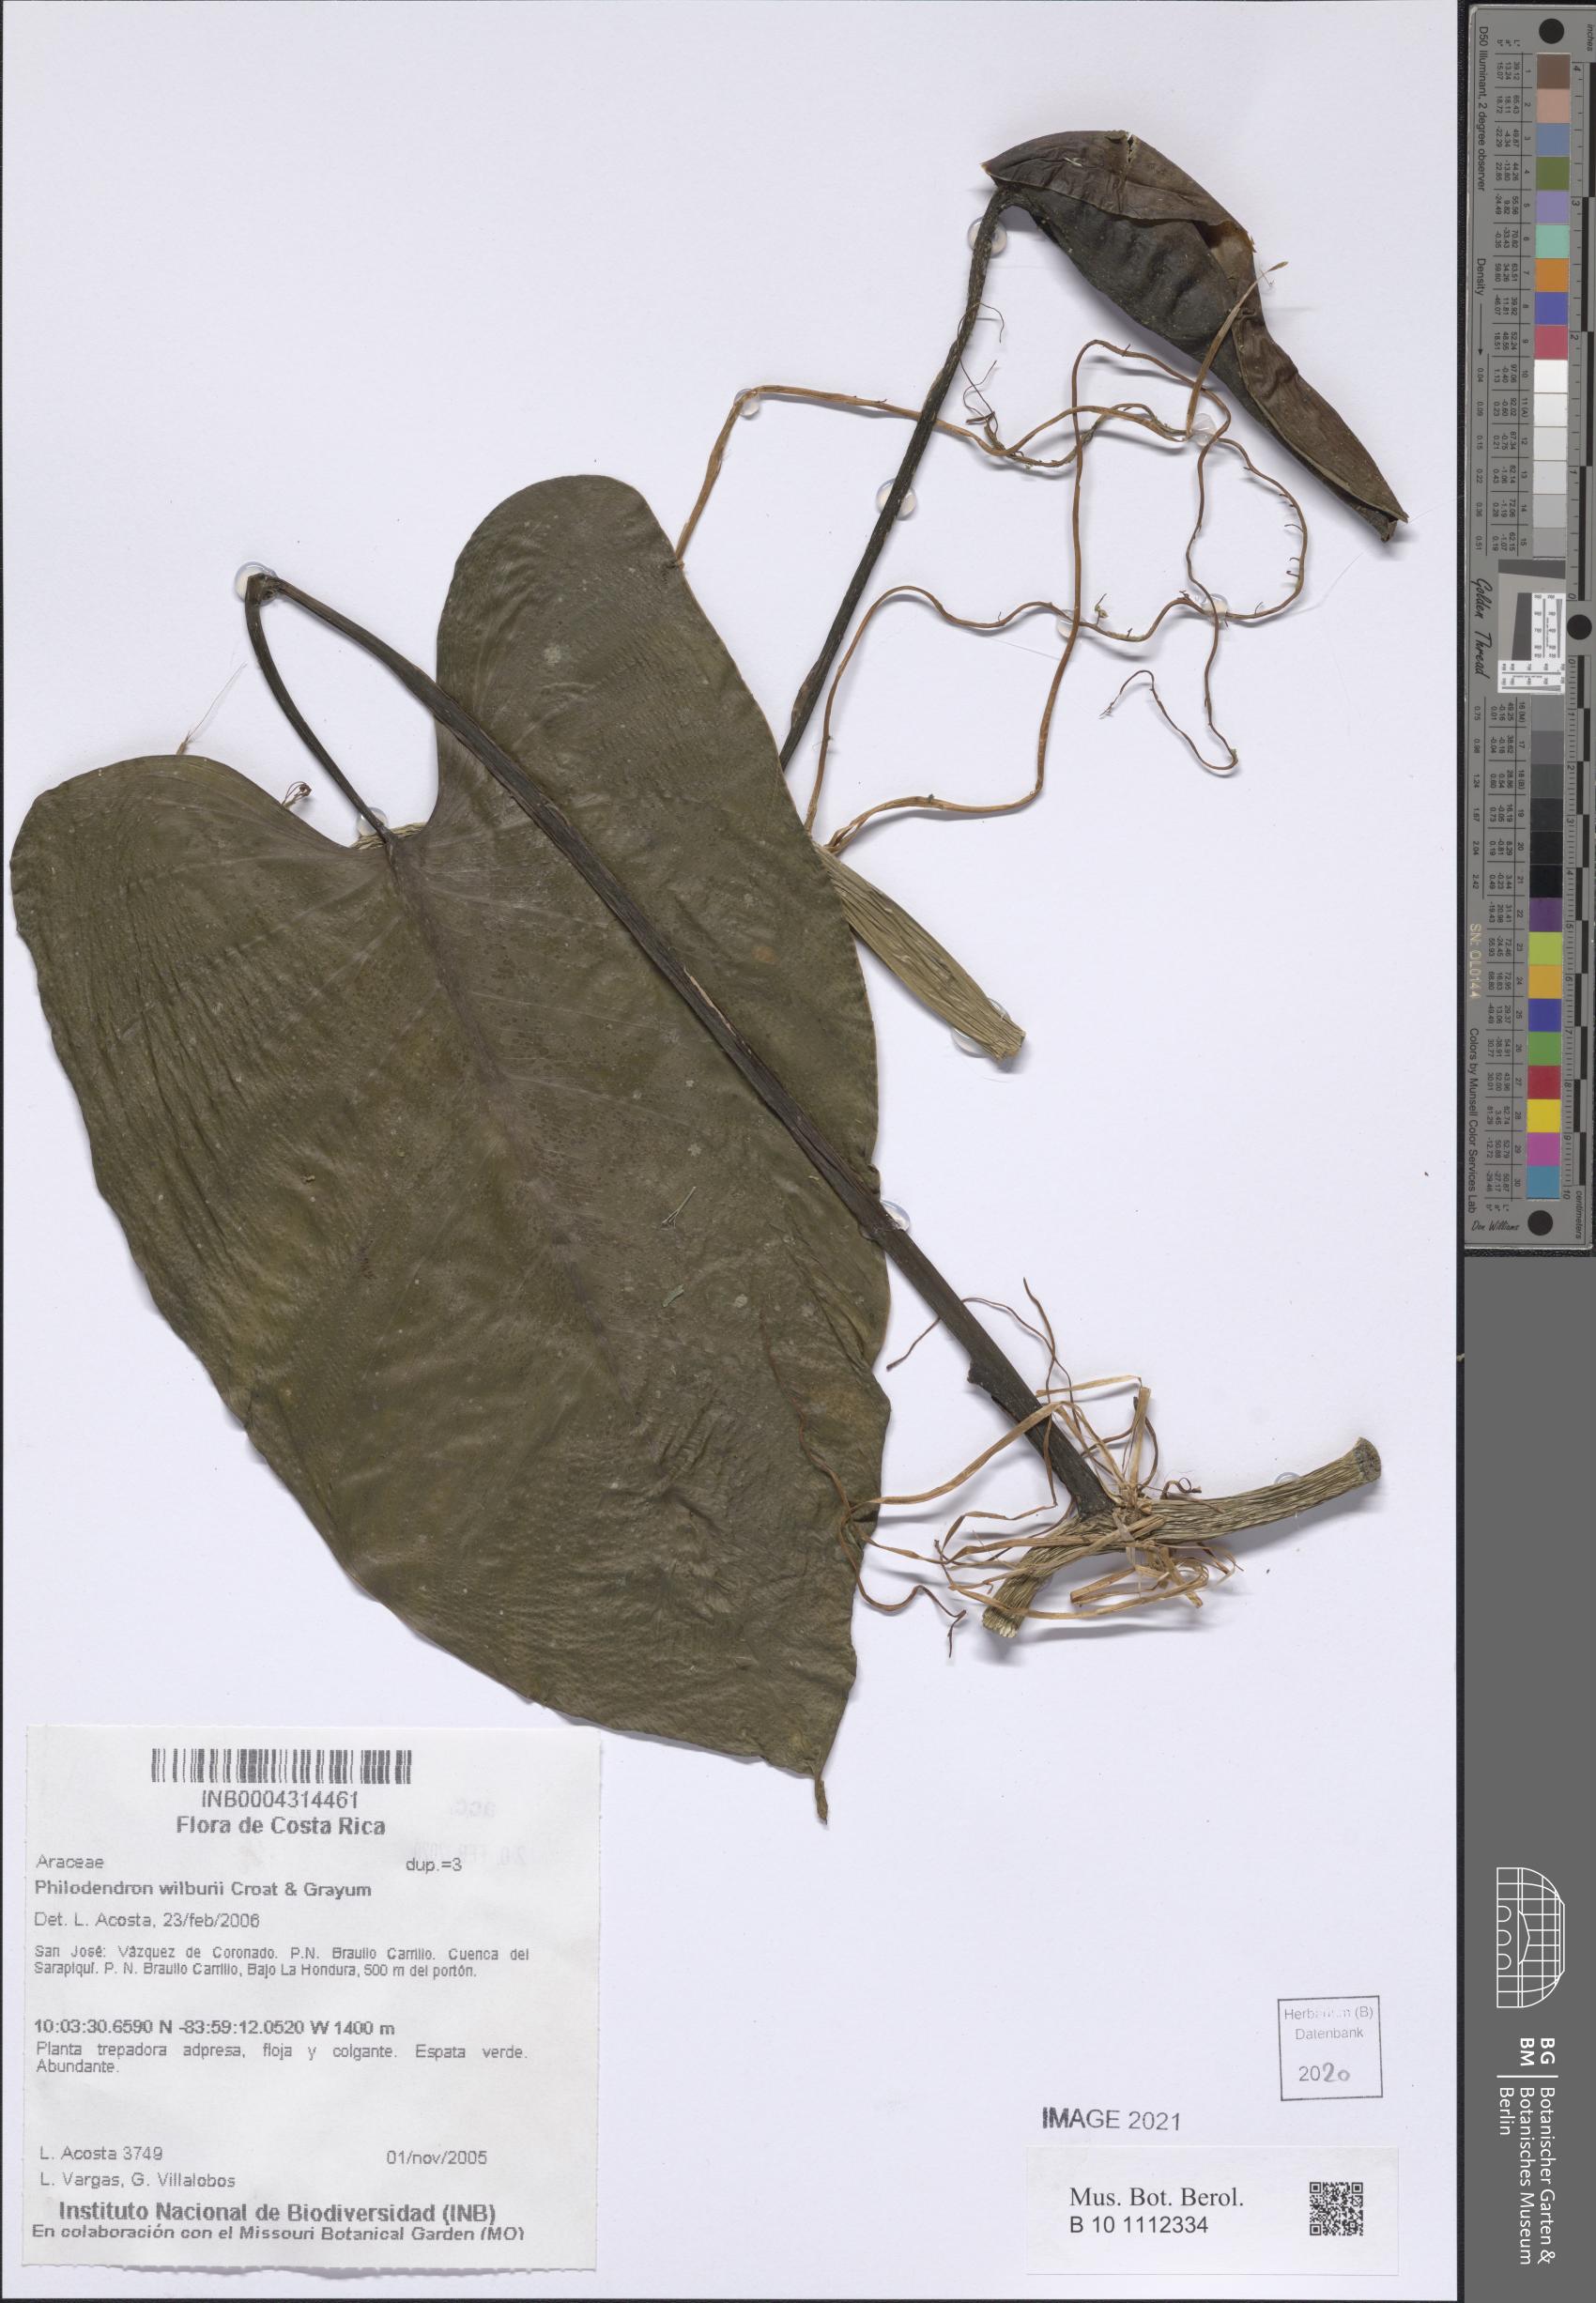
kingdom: Plantae
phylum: Tracheophyta
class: Liliopsida
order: Alismatales
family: Araceae
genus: Philodendron
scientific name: Philodendron wilburii
